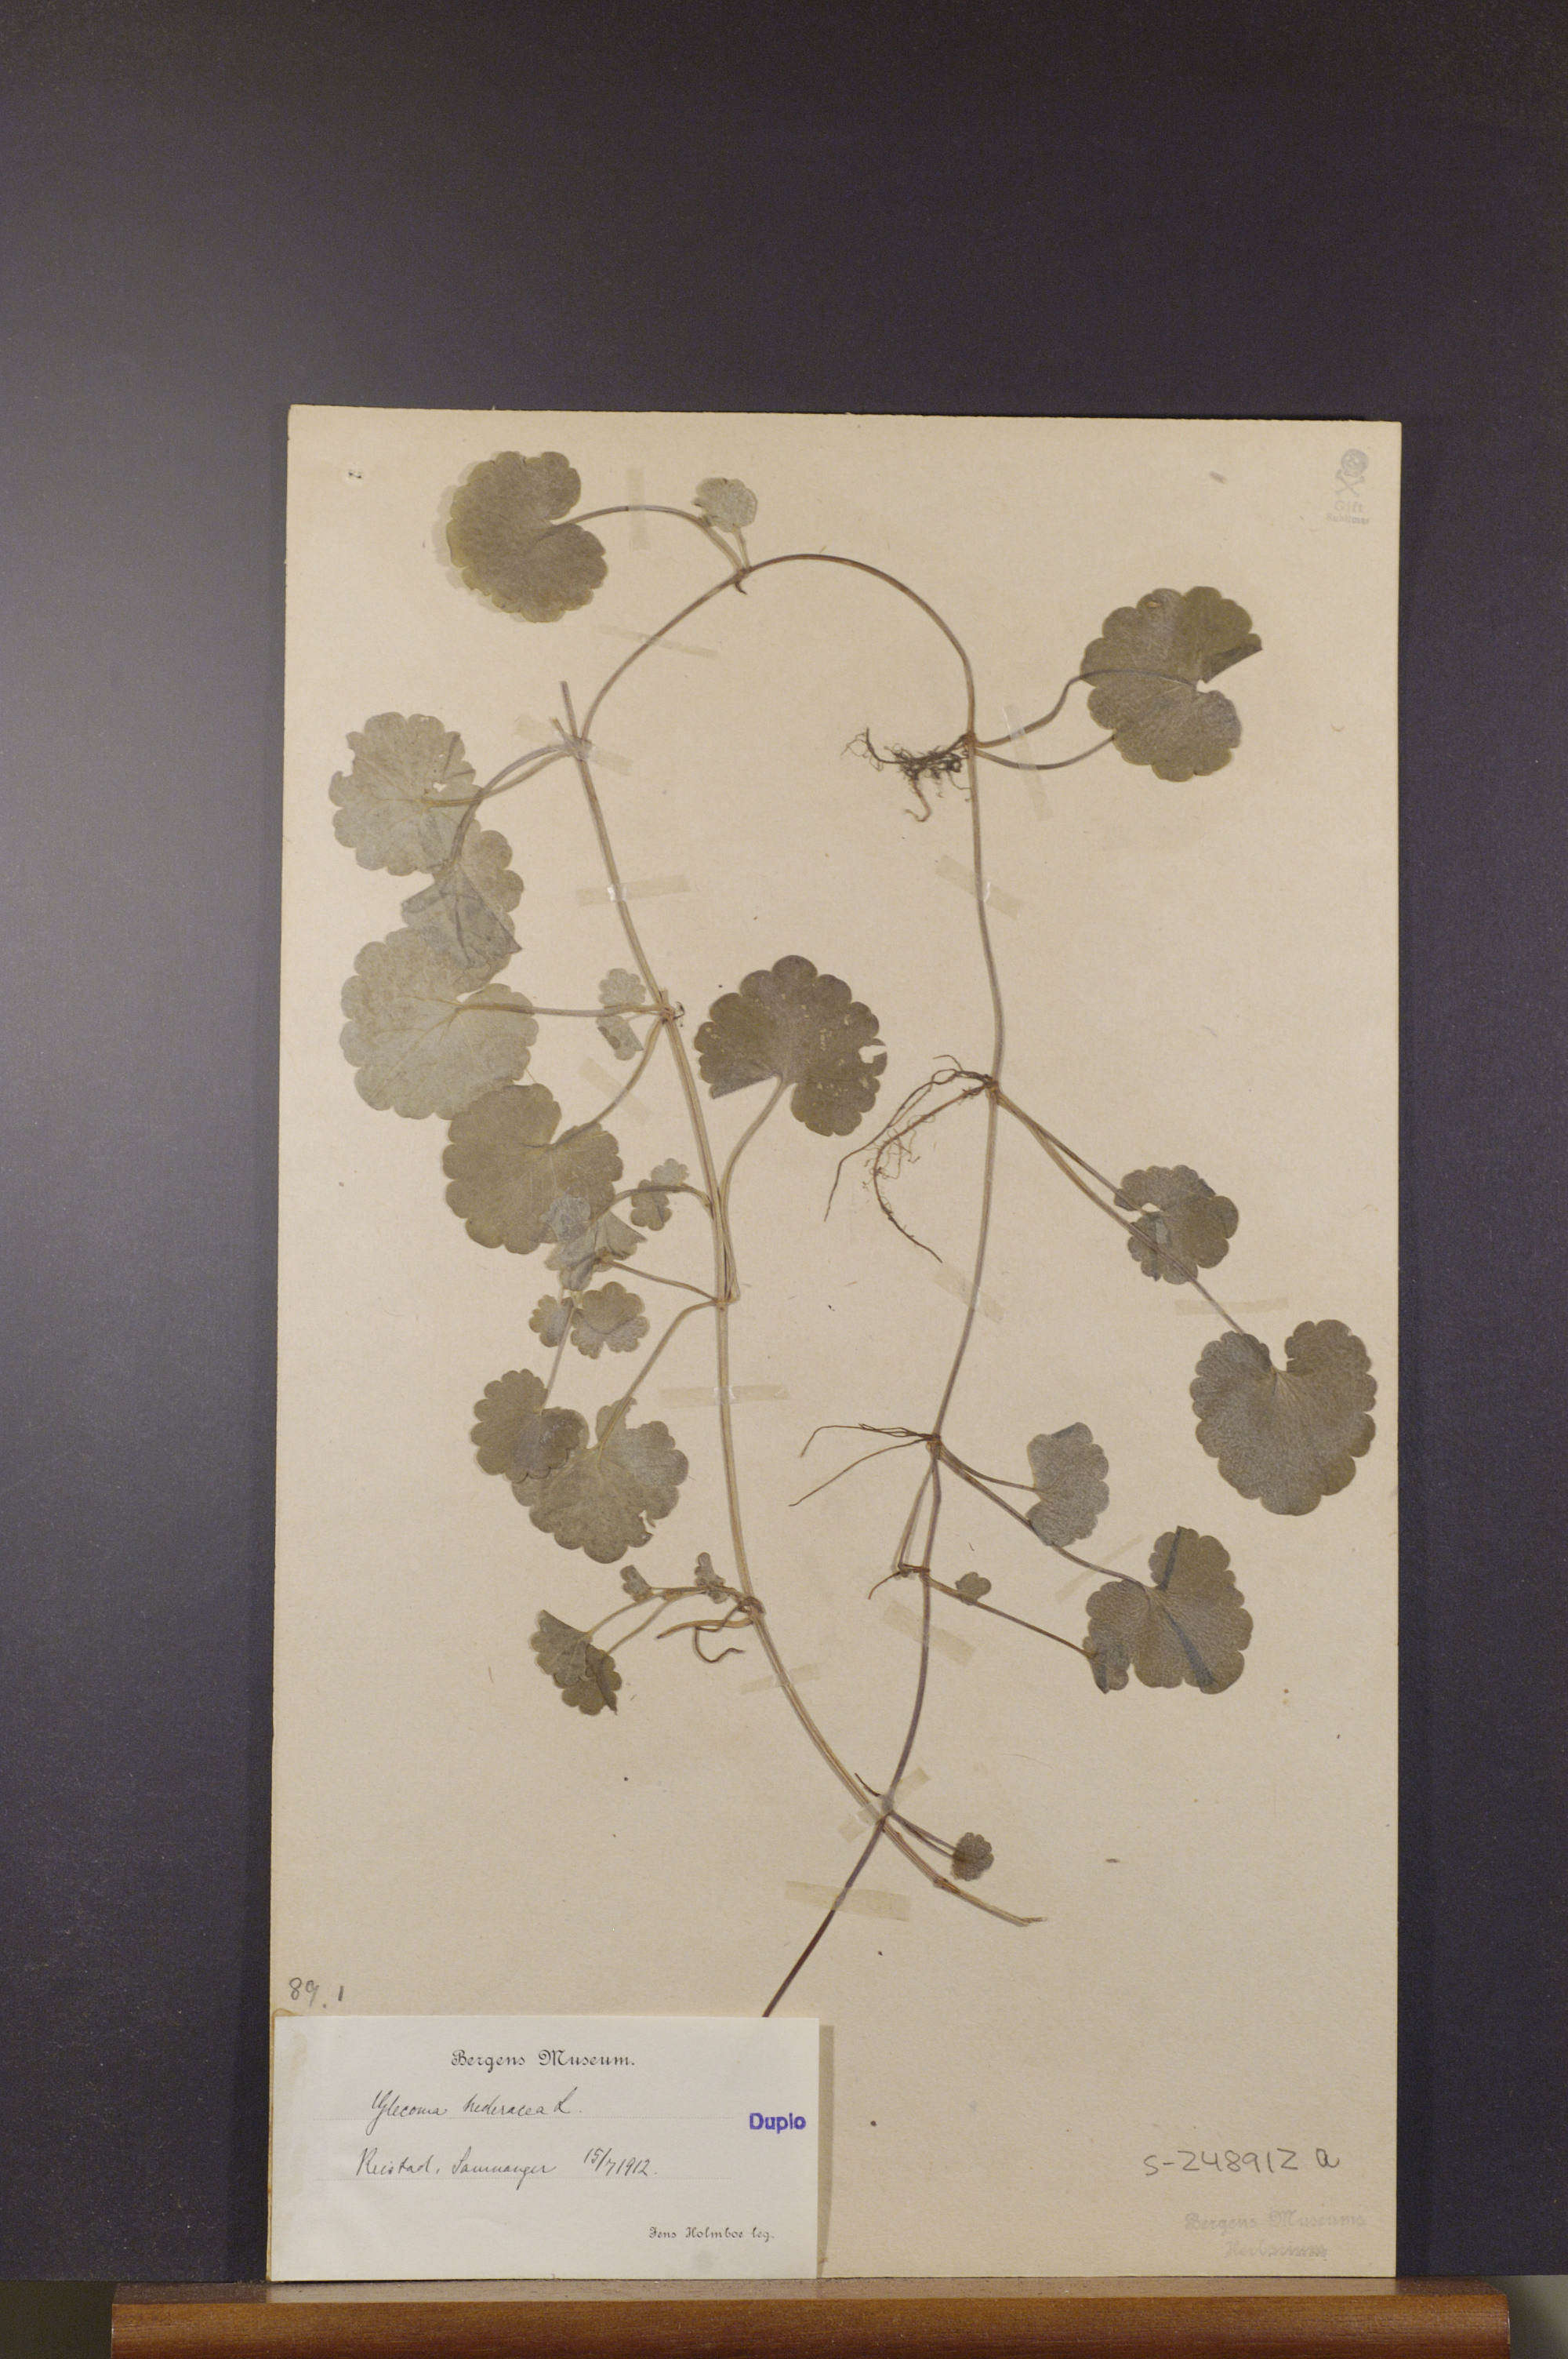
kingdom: Plantae
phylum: Tracheophyta
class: Magnoliopsida
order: Lamiales
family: Lamiaceae
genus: Glechoma
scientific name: Glechoma hederacea
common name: Ground ivy
